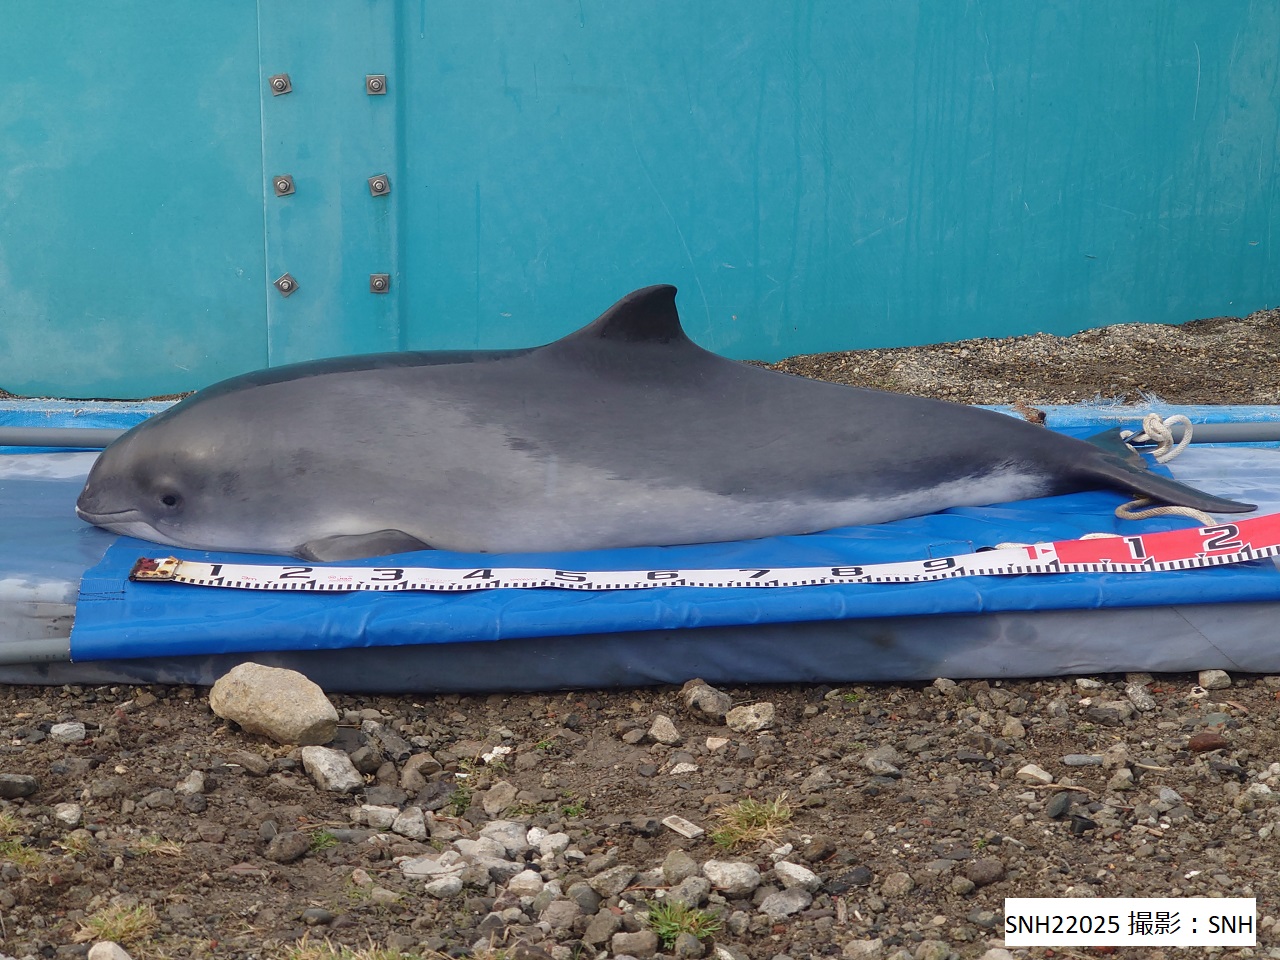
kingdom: Animalia
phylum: Chordata
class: Mammalia
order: Cetacea
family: Phocoenidae
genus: Phocoena
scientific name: Phocoena phocoena
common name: Harbour porpoise
